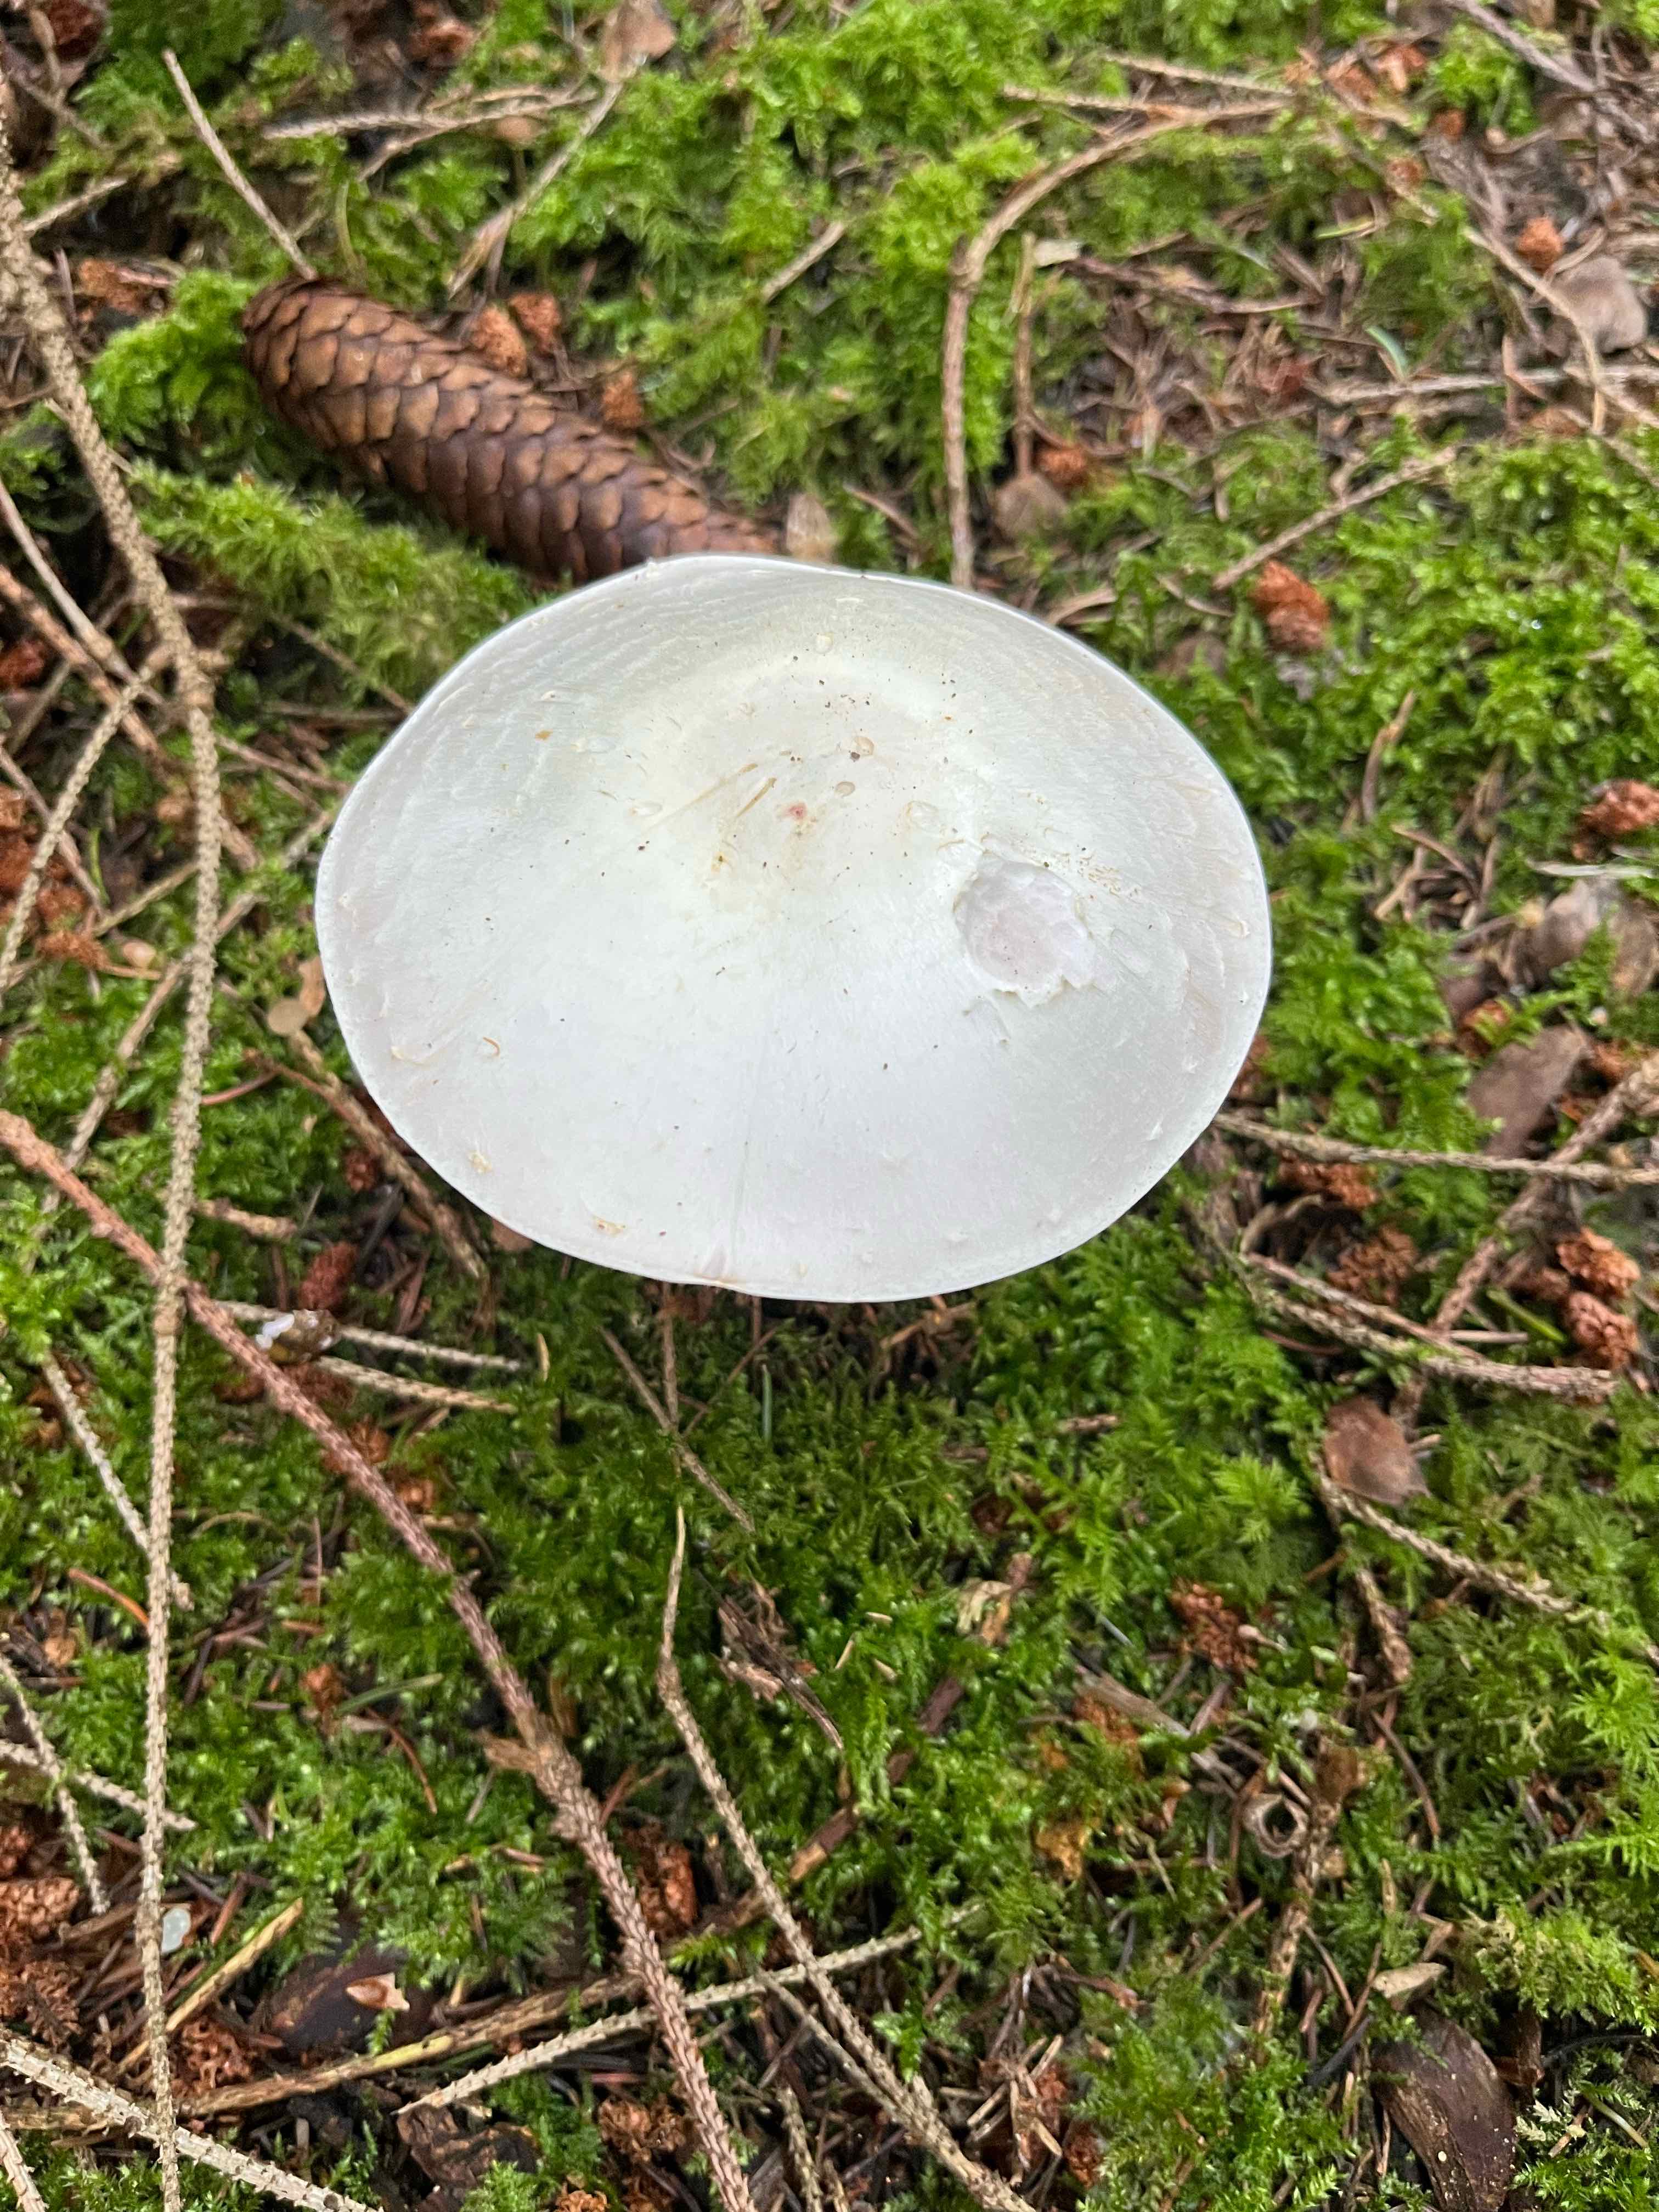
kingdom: Fungi
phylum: Basidiomycota
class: Agaricomycetes
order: Agaricales
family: Agaricaceae
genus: Agaricus
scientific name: Agaricus
